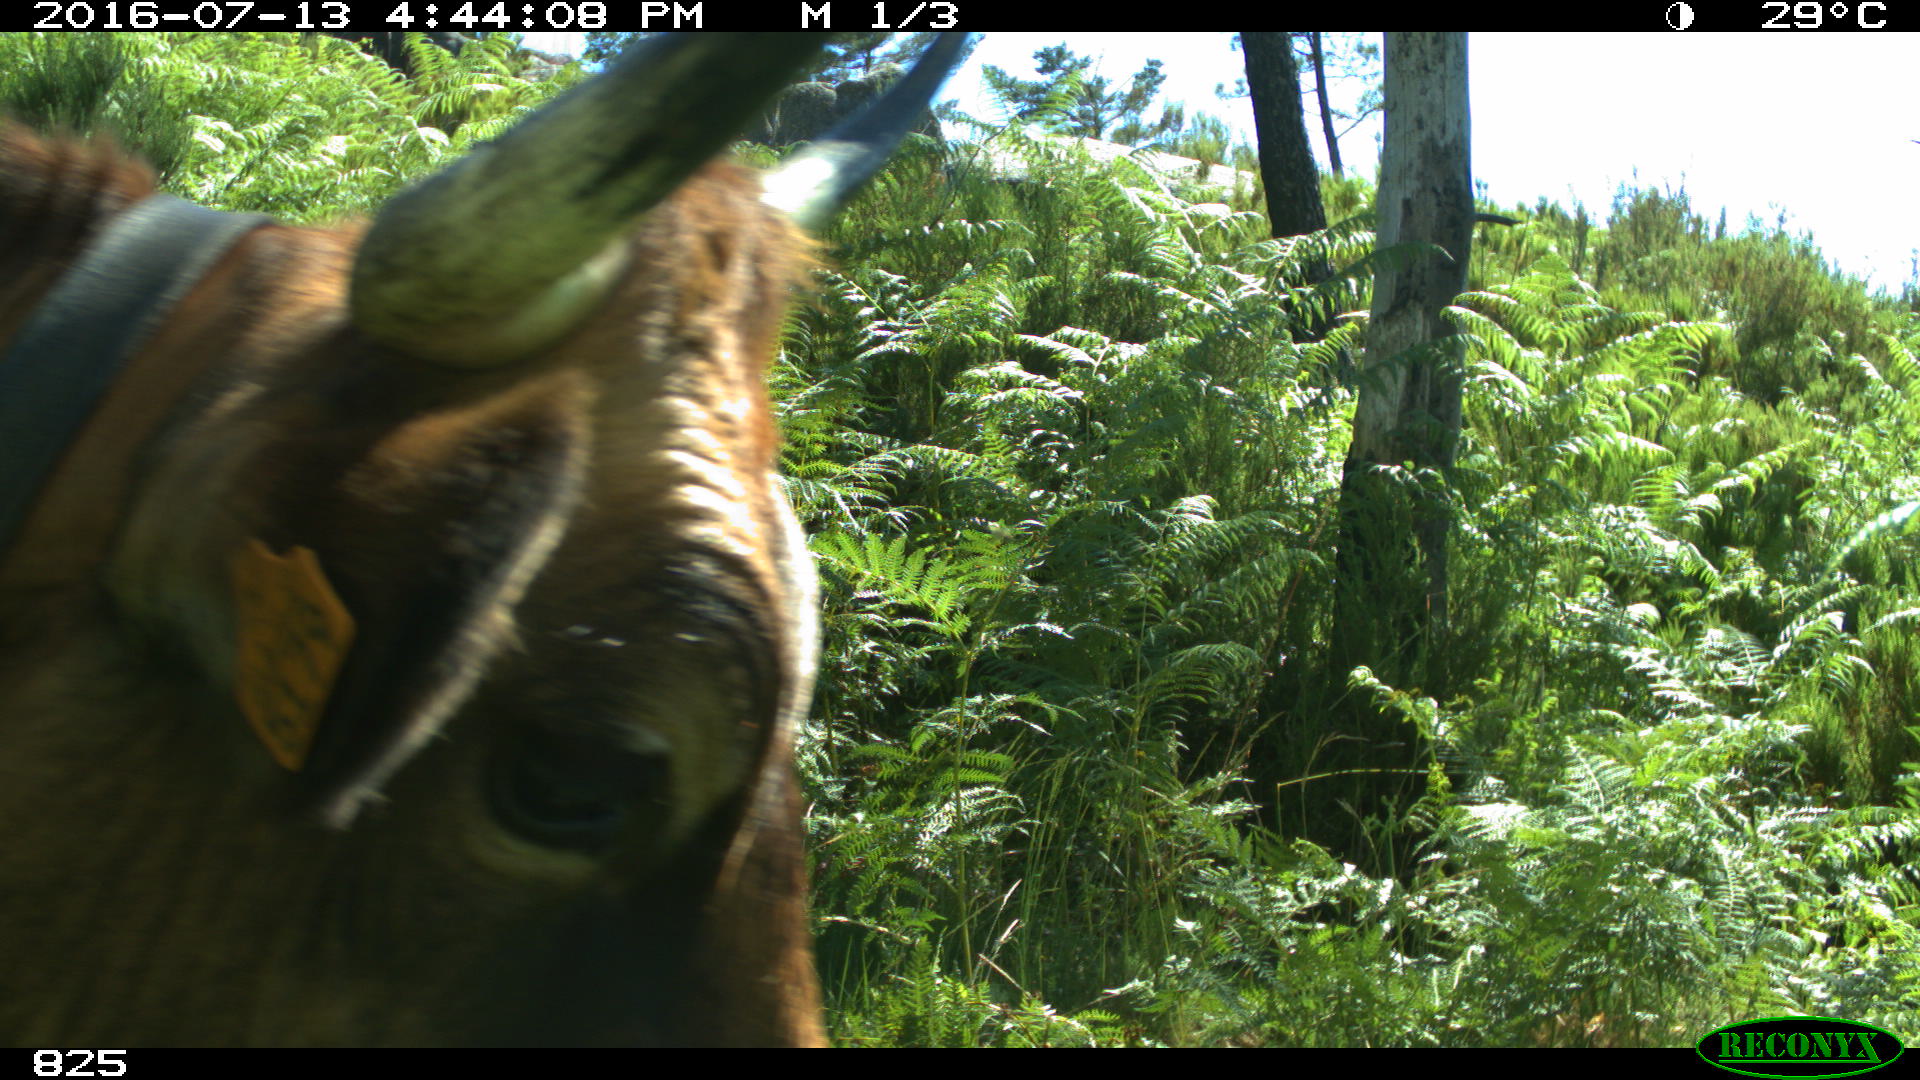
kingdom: Animalia
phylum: Chordata
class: Mammalia
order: Artiodactyla
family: Bovidae
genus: Bos
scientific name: Bos taurus
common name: Domesticated cattle
